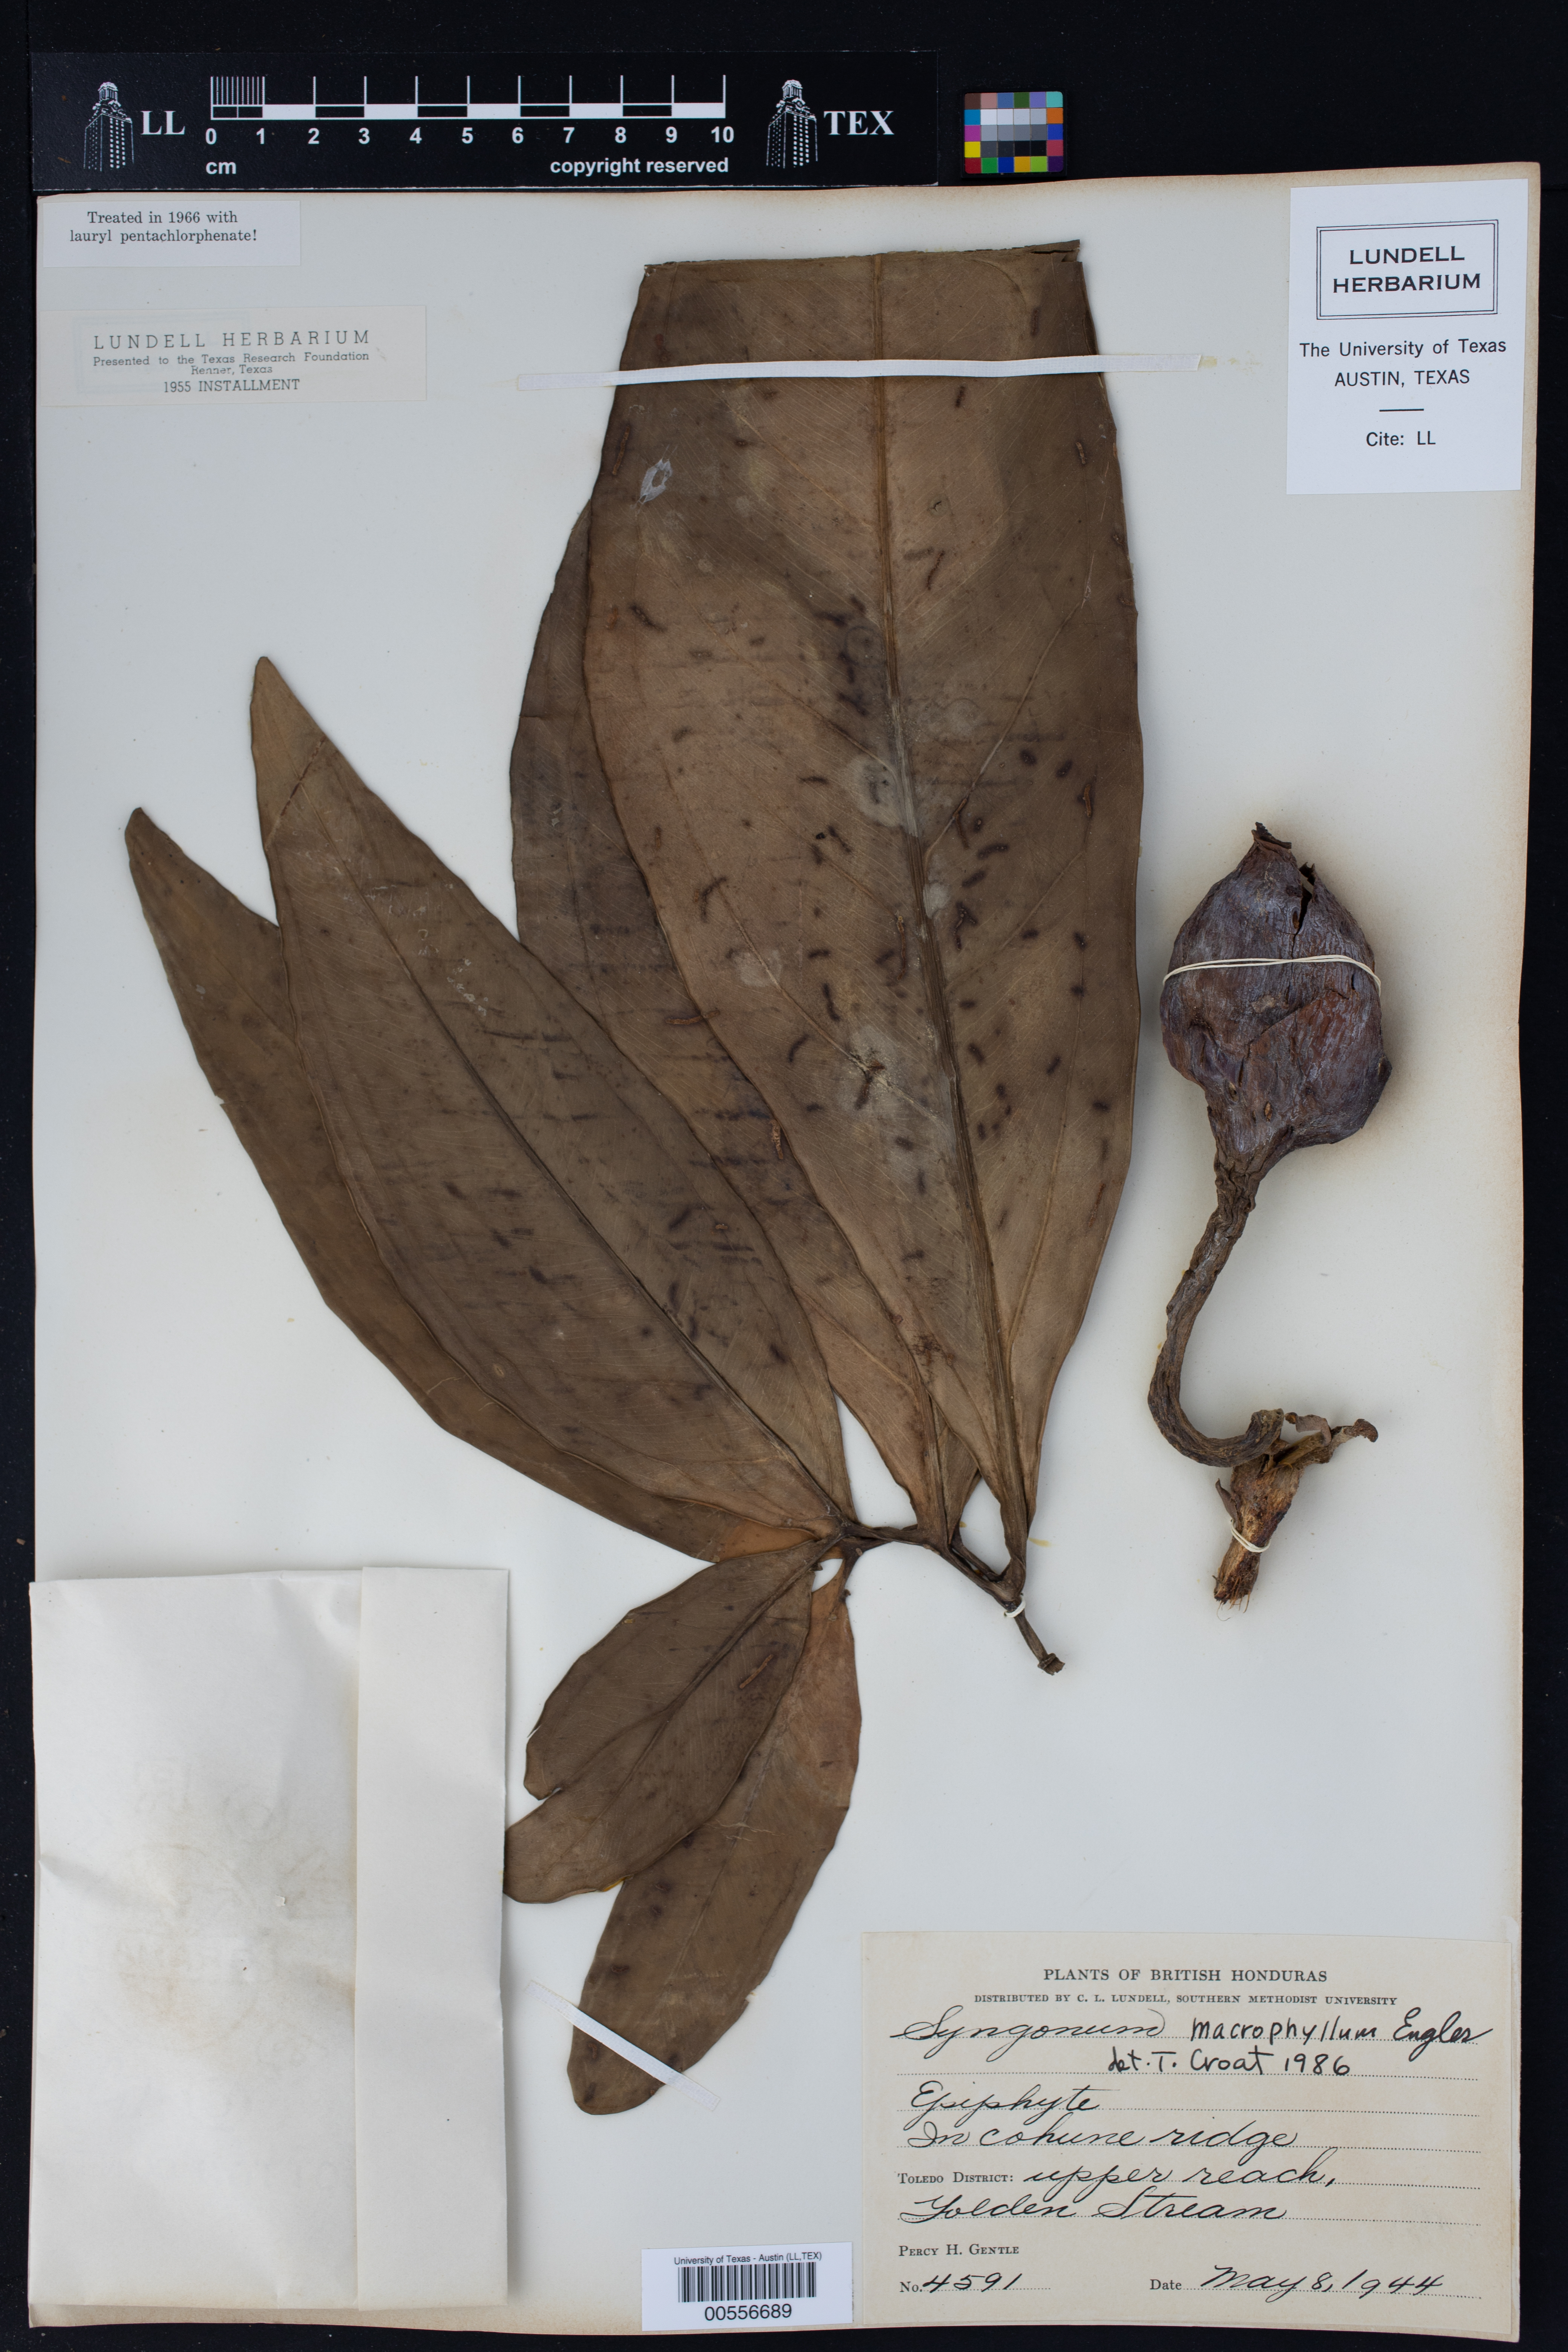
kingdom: Plantae
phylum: Tracheophyta
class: Liliopsida
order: Alismatales
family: Araceae
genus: Syngonium
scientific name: Syngonium macrophyllum
